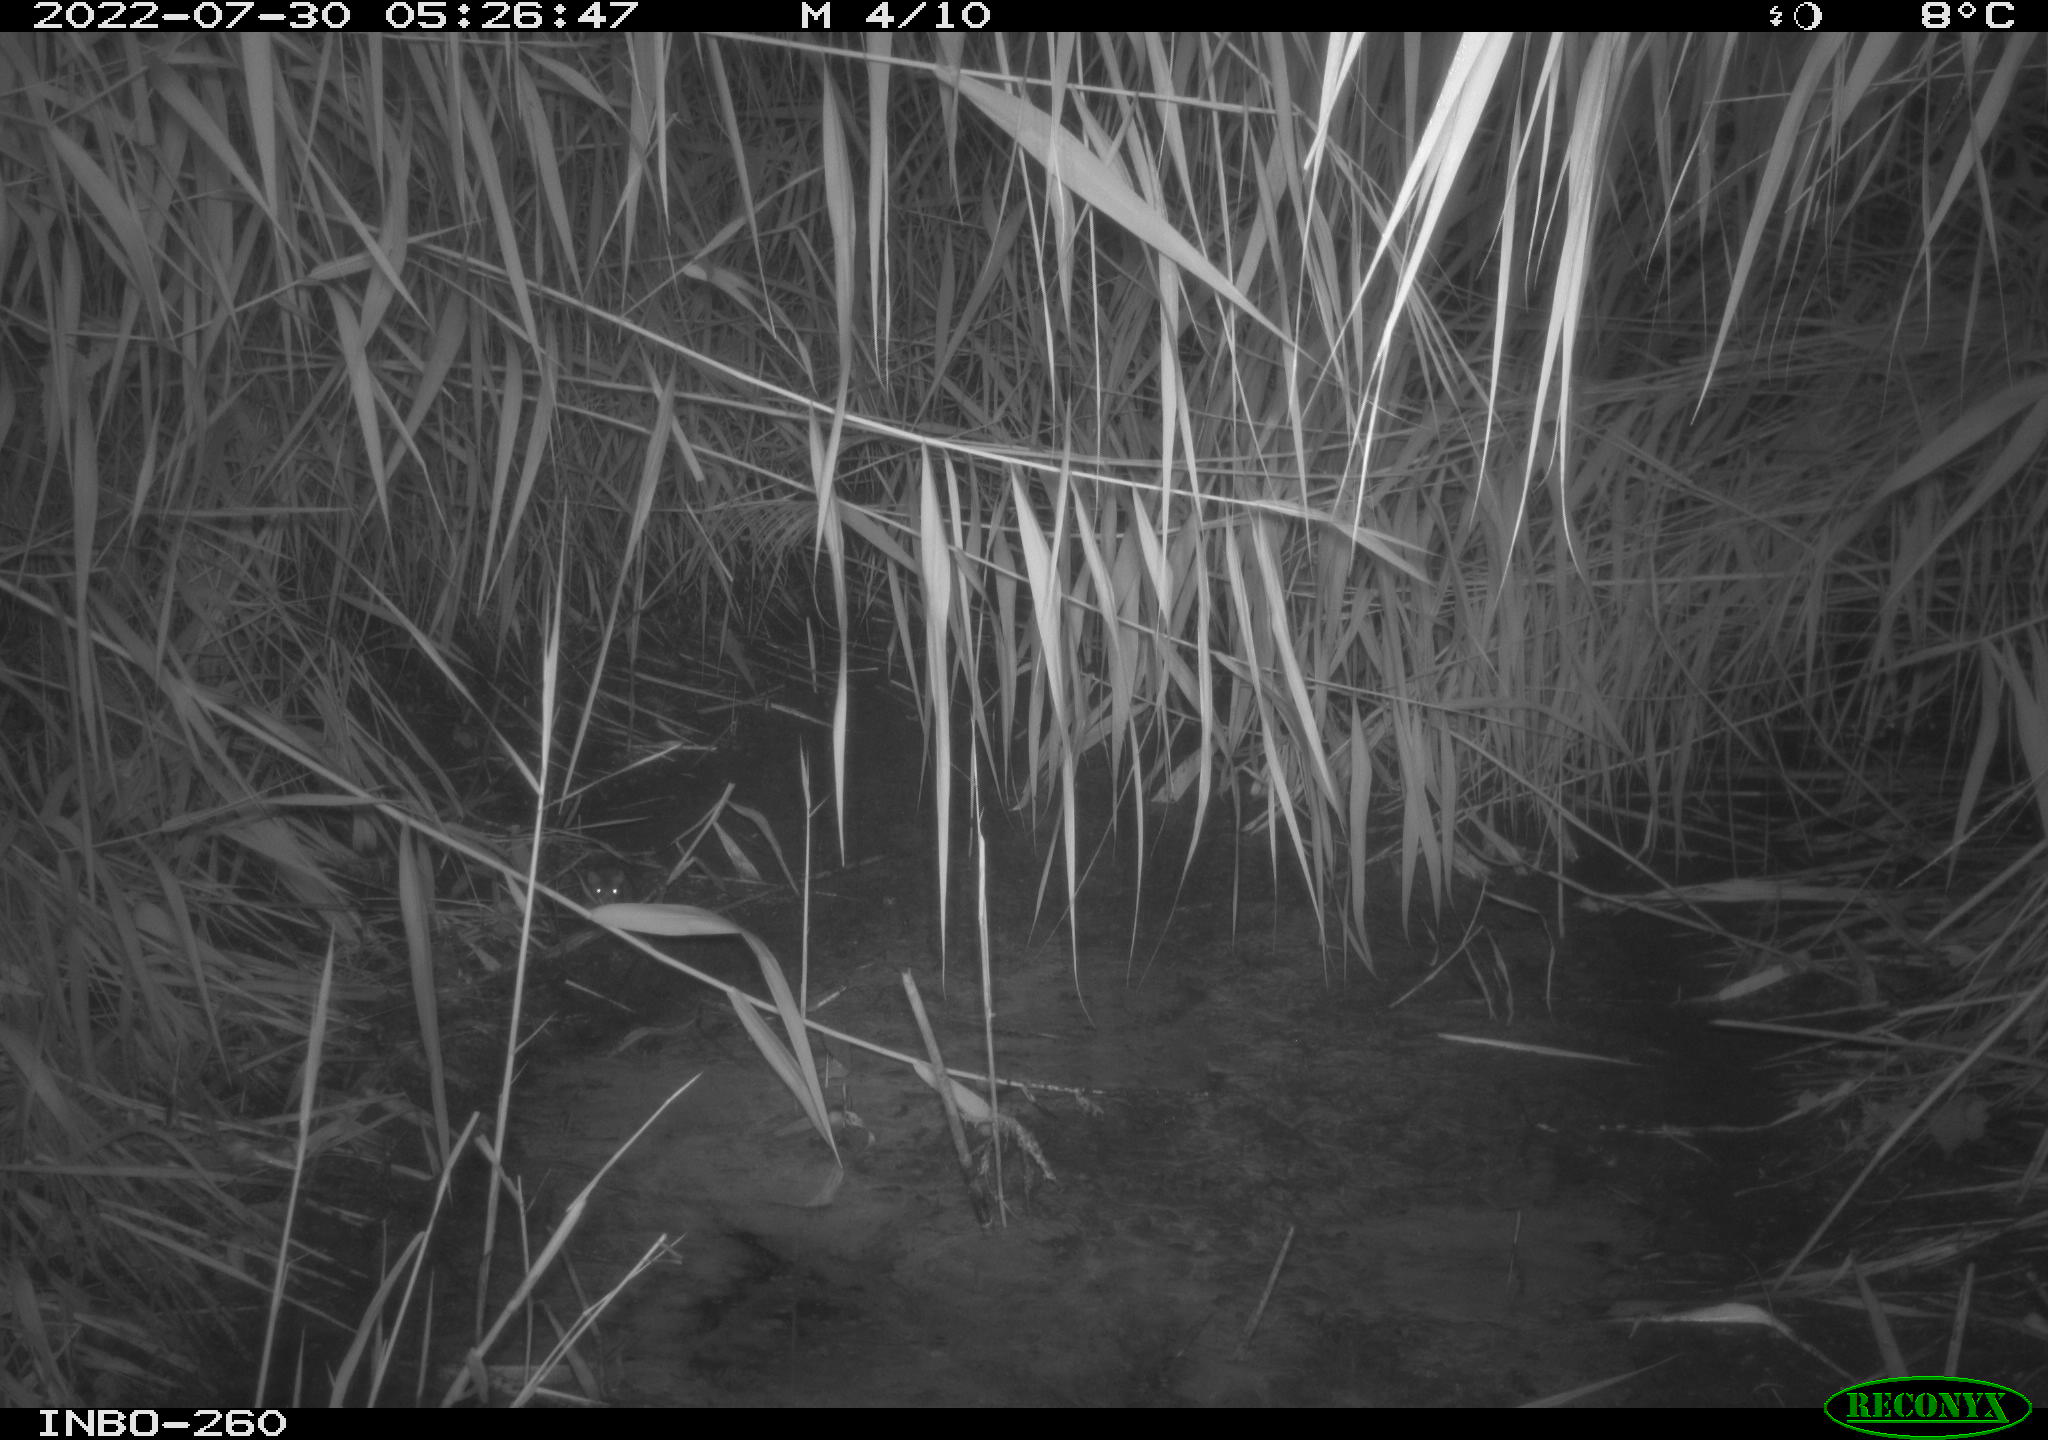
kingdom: Animalia
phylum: Chordata
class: Mammalia
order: Rodentia
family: Muridae
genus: Rattus
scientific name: Rattus norvegicus
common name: Brown rat
